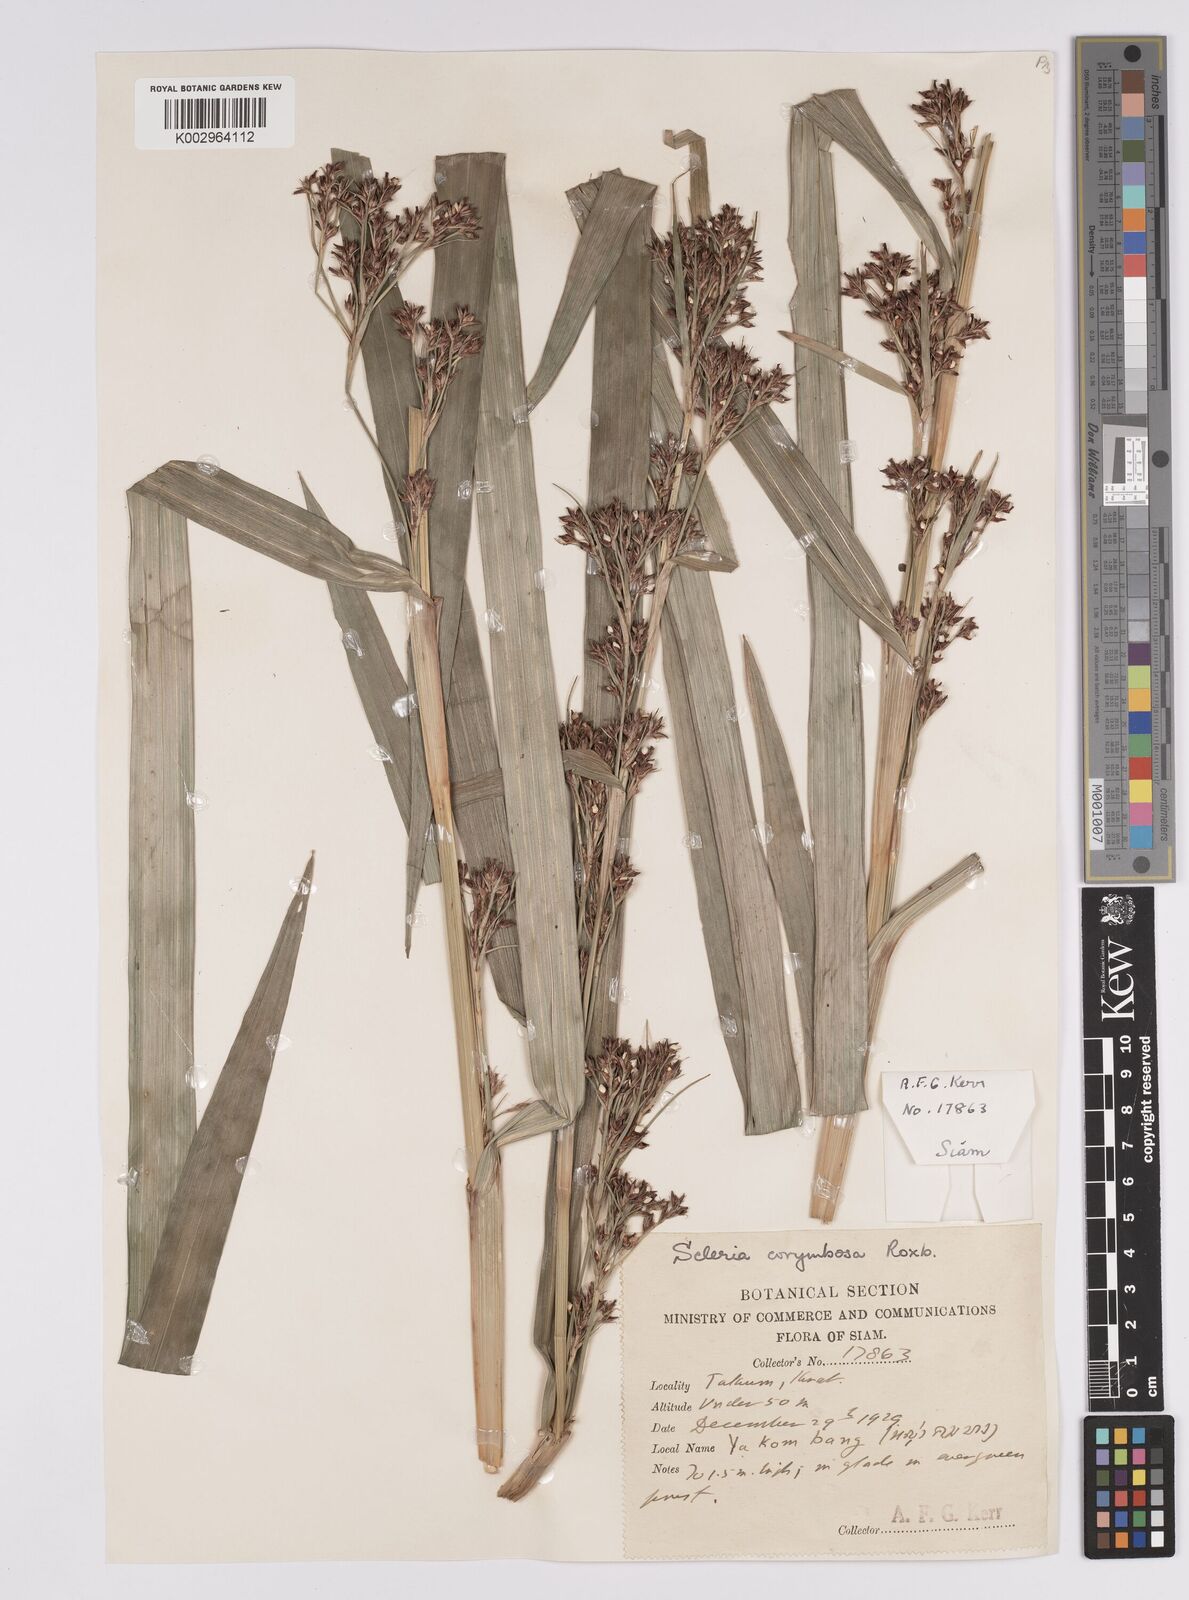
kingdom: Plantae
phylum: Tracheophyta
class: Liliopsida
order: Poales
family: Cyperaceae
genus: Scleria
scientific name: Scleria corymbosa
